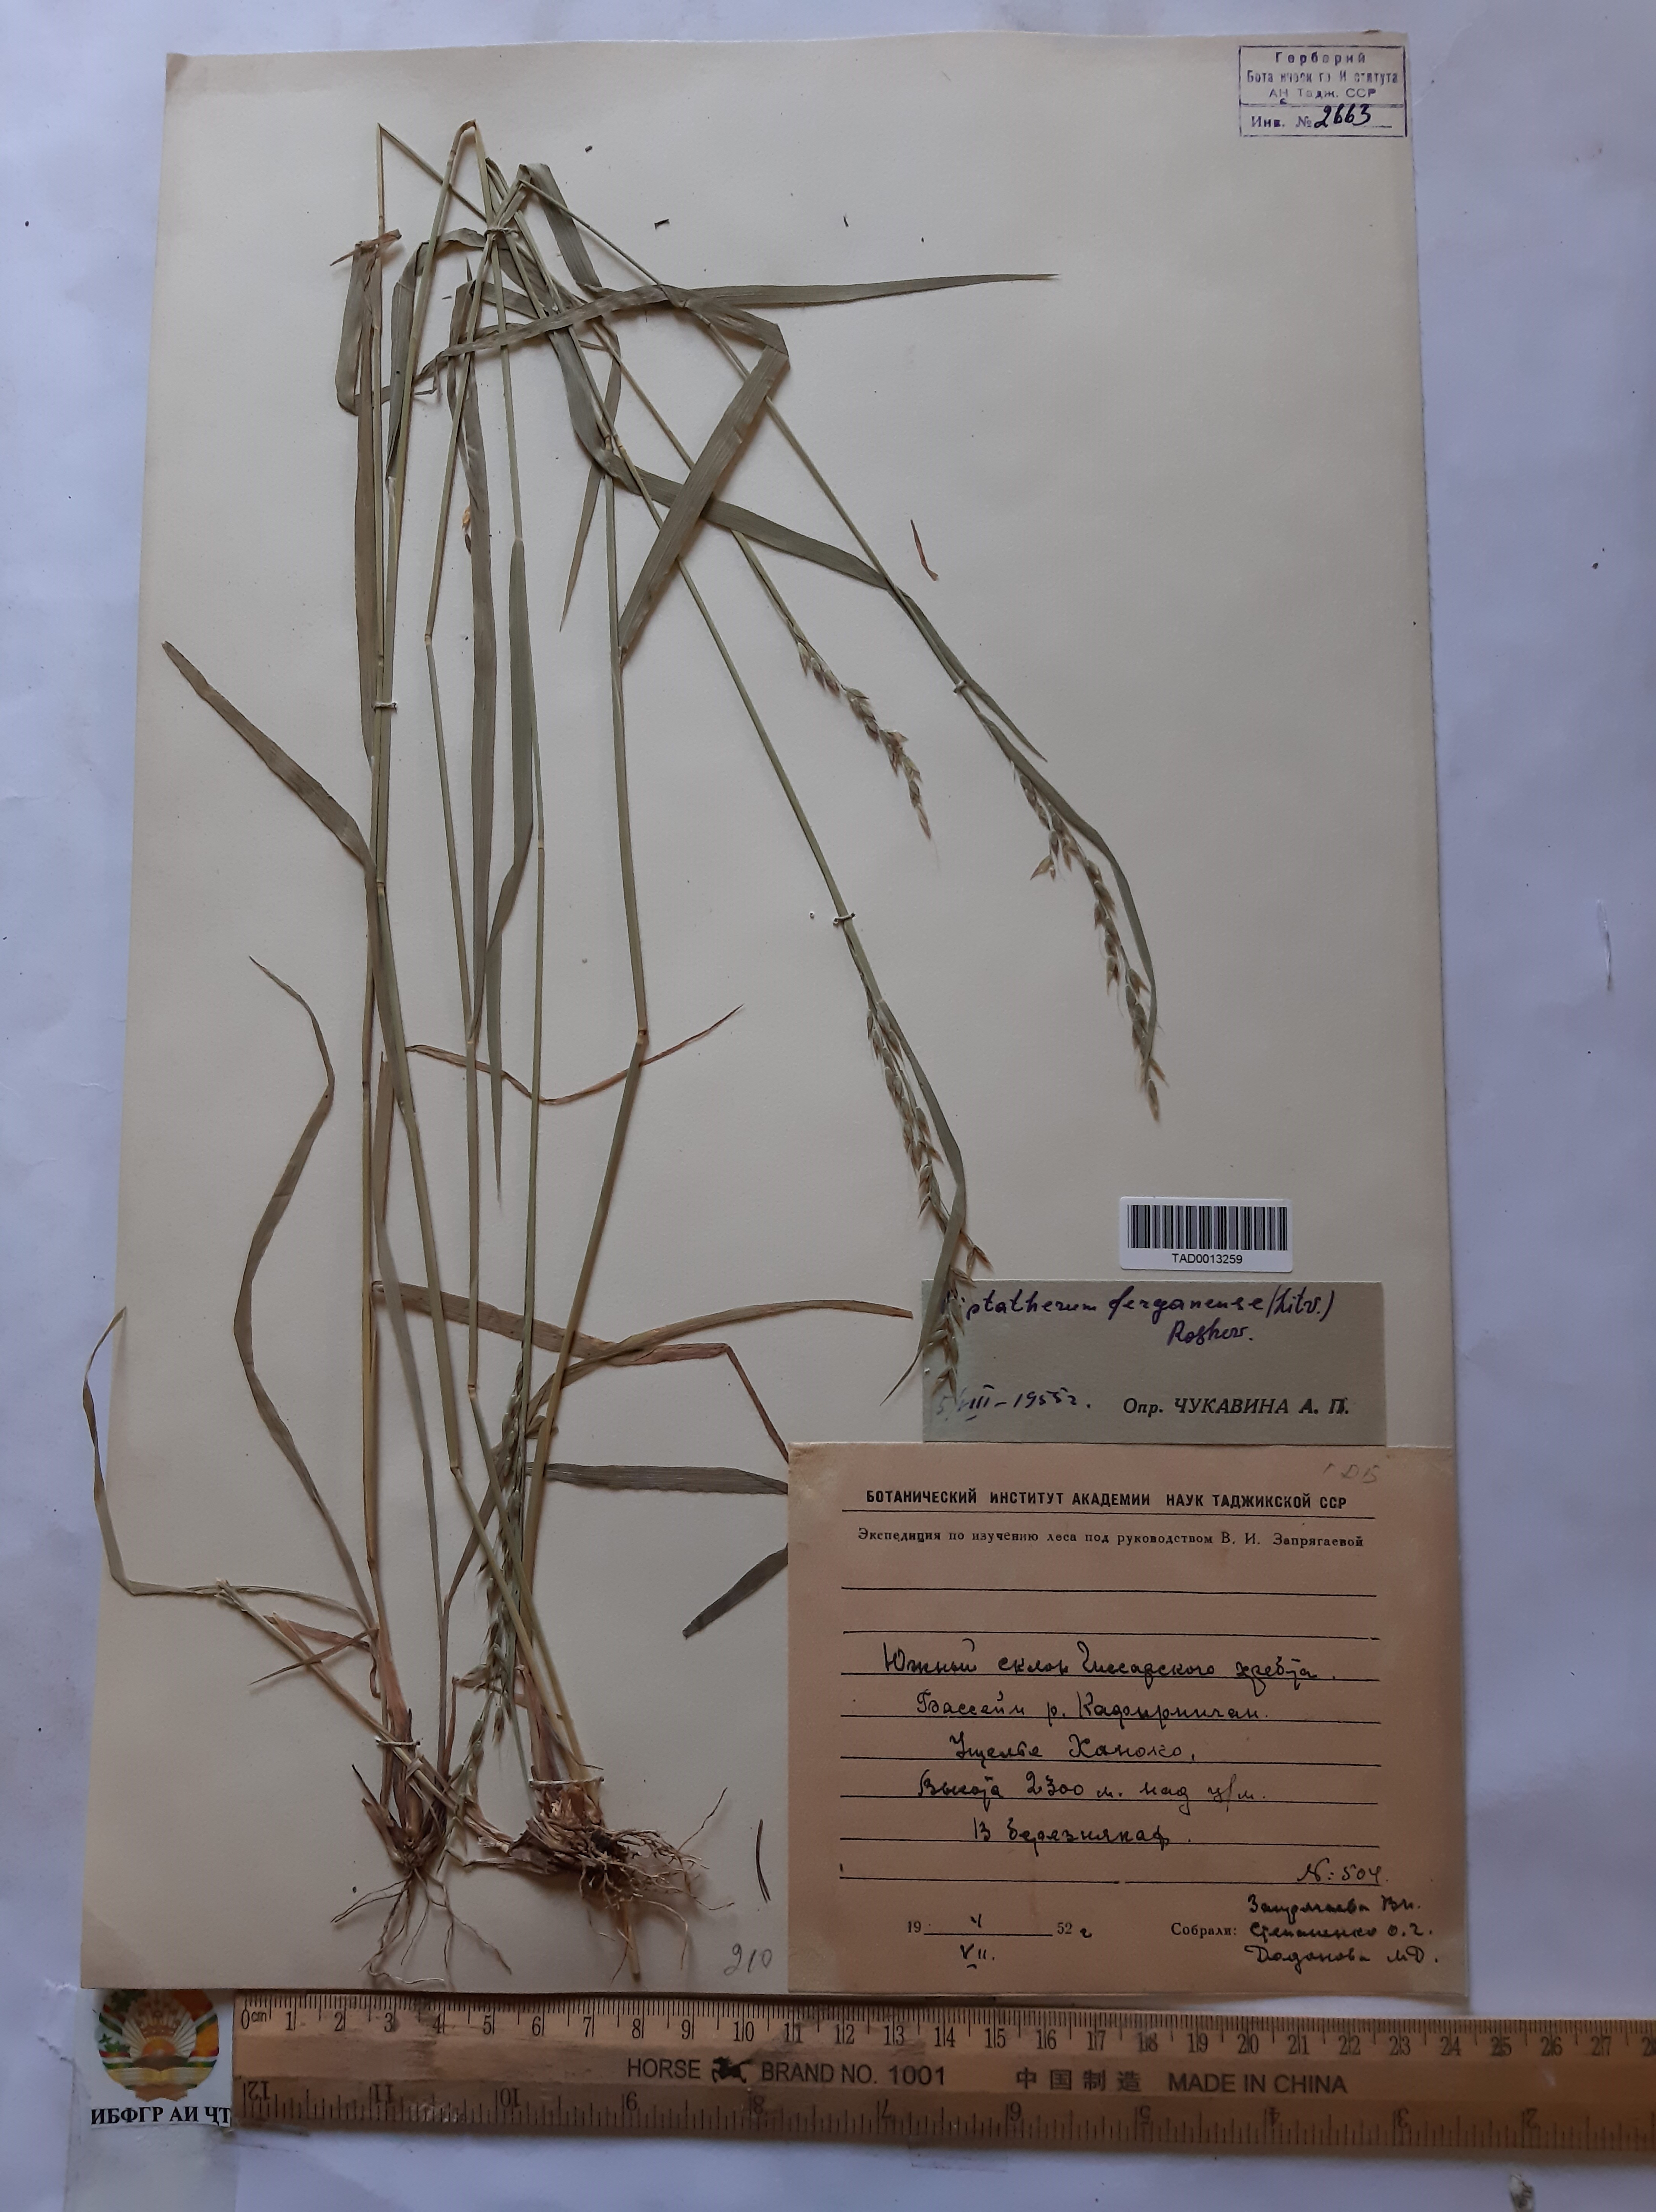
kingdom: Plantae
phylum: Tracheophyta
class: Liliopsida
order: Poales
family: Poaceae
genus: Piptatherum
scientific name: Piptatherum ferganense
